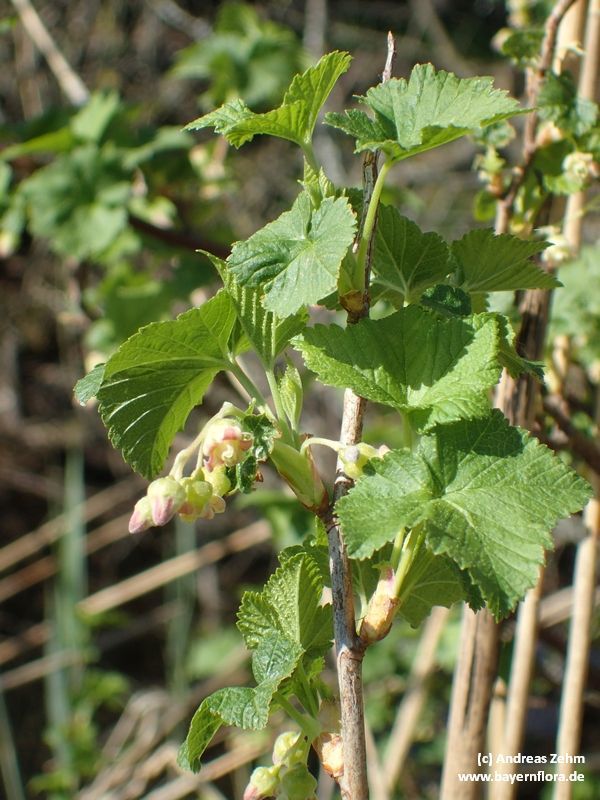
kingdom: Plantae
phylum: Tracheophyta
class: Magnoliopsida
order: Saxifragales
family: Grossulariaceae
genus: Ribes
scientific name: Ribes nigrum
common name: Black currant
